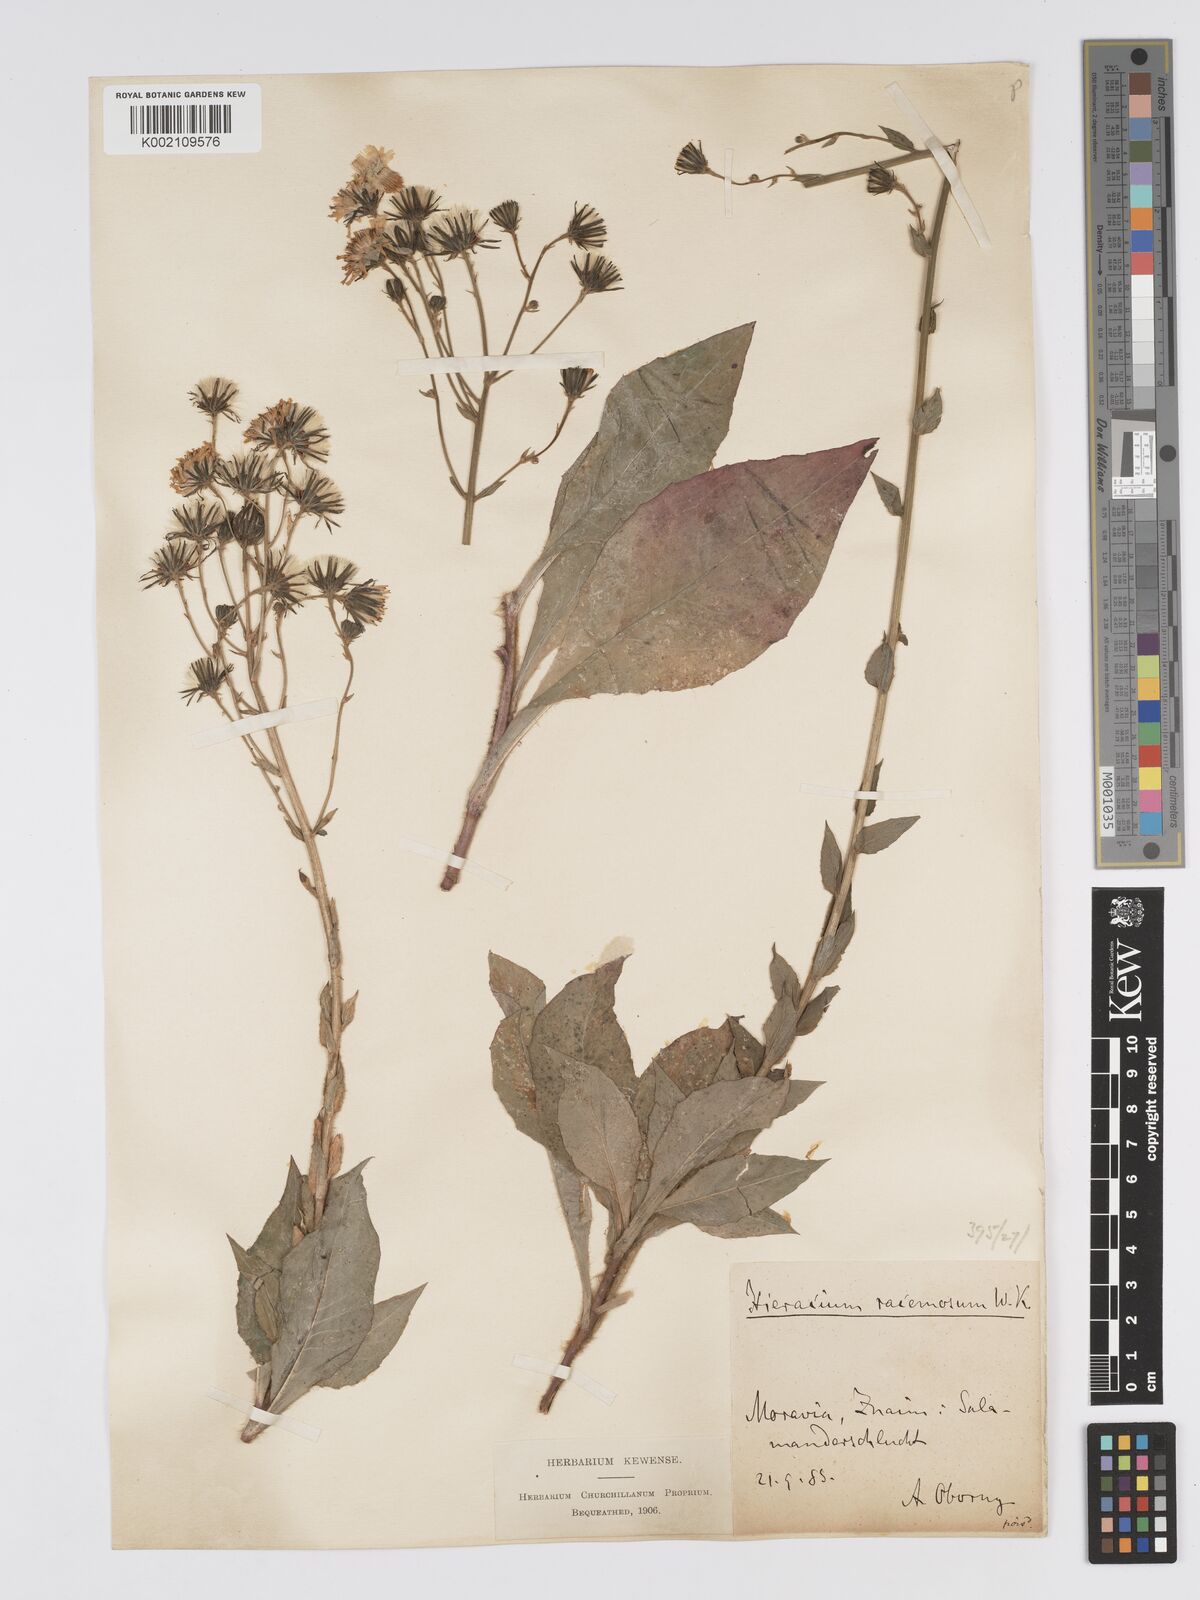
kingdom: Plantae
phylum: Tracheophyta
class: Magnoliopsida
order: Asterales
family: Asteraceae
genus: Hieracium
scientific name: Hieracium racemosum
